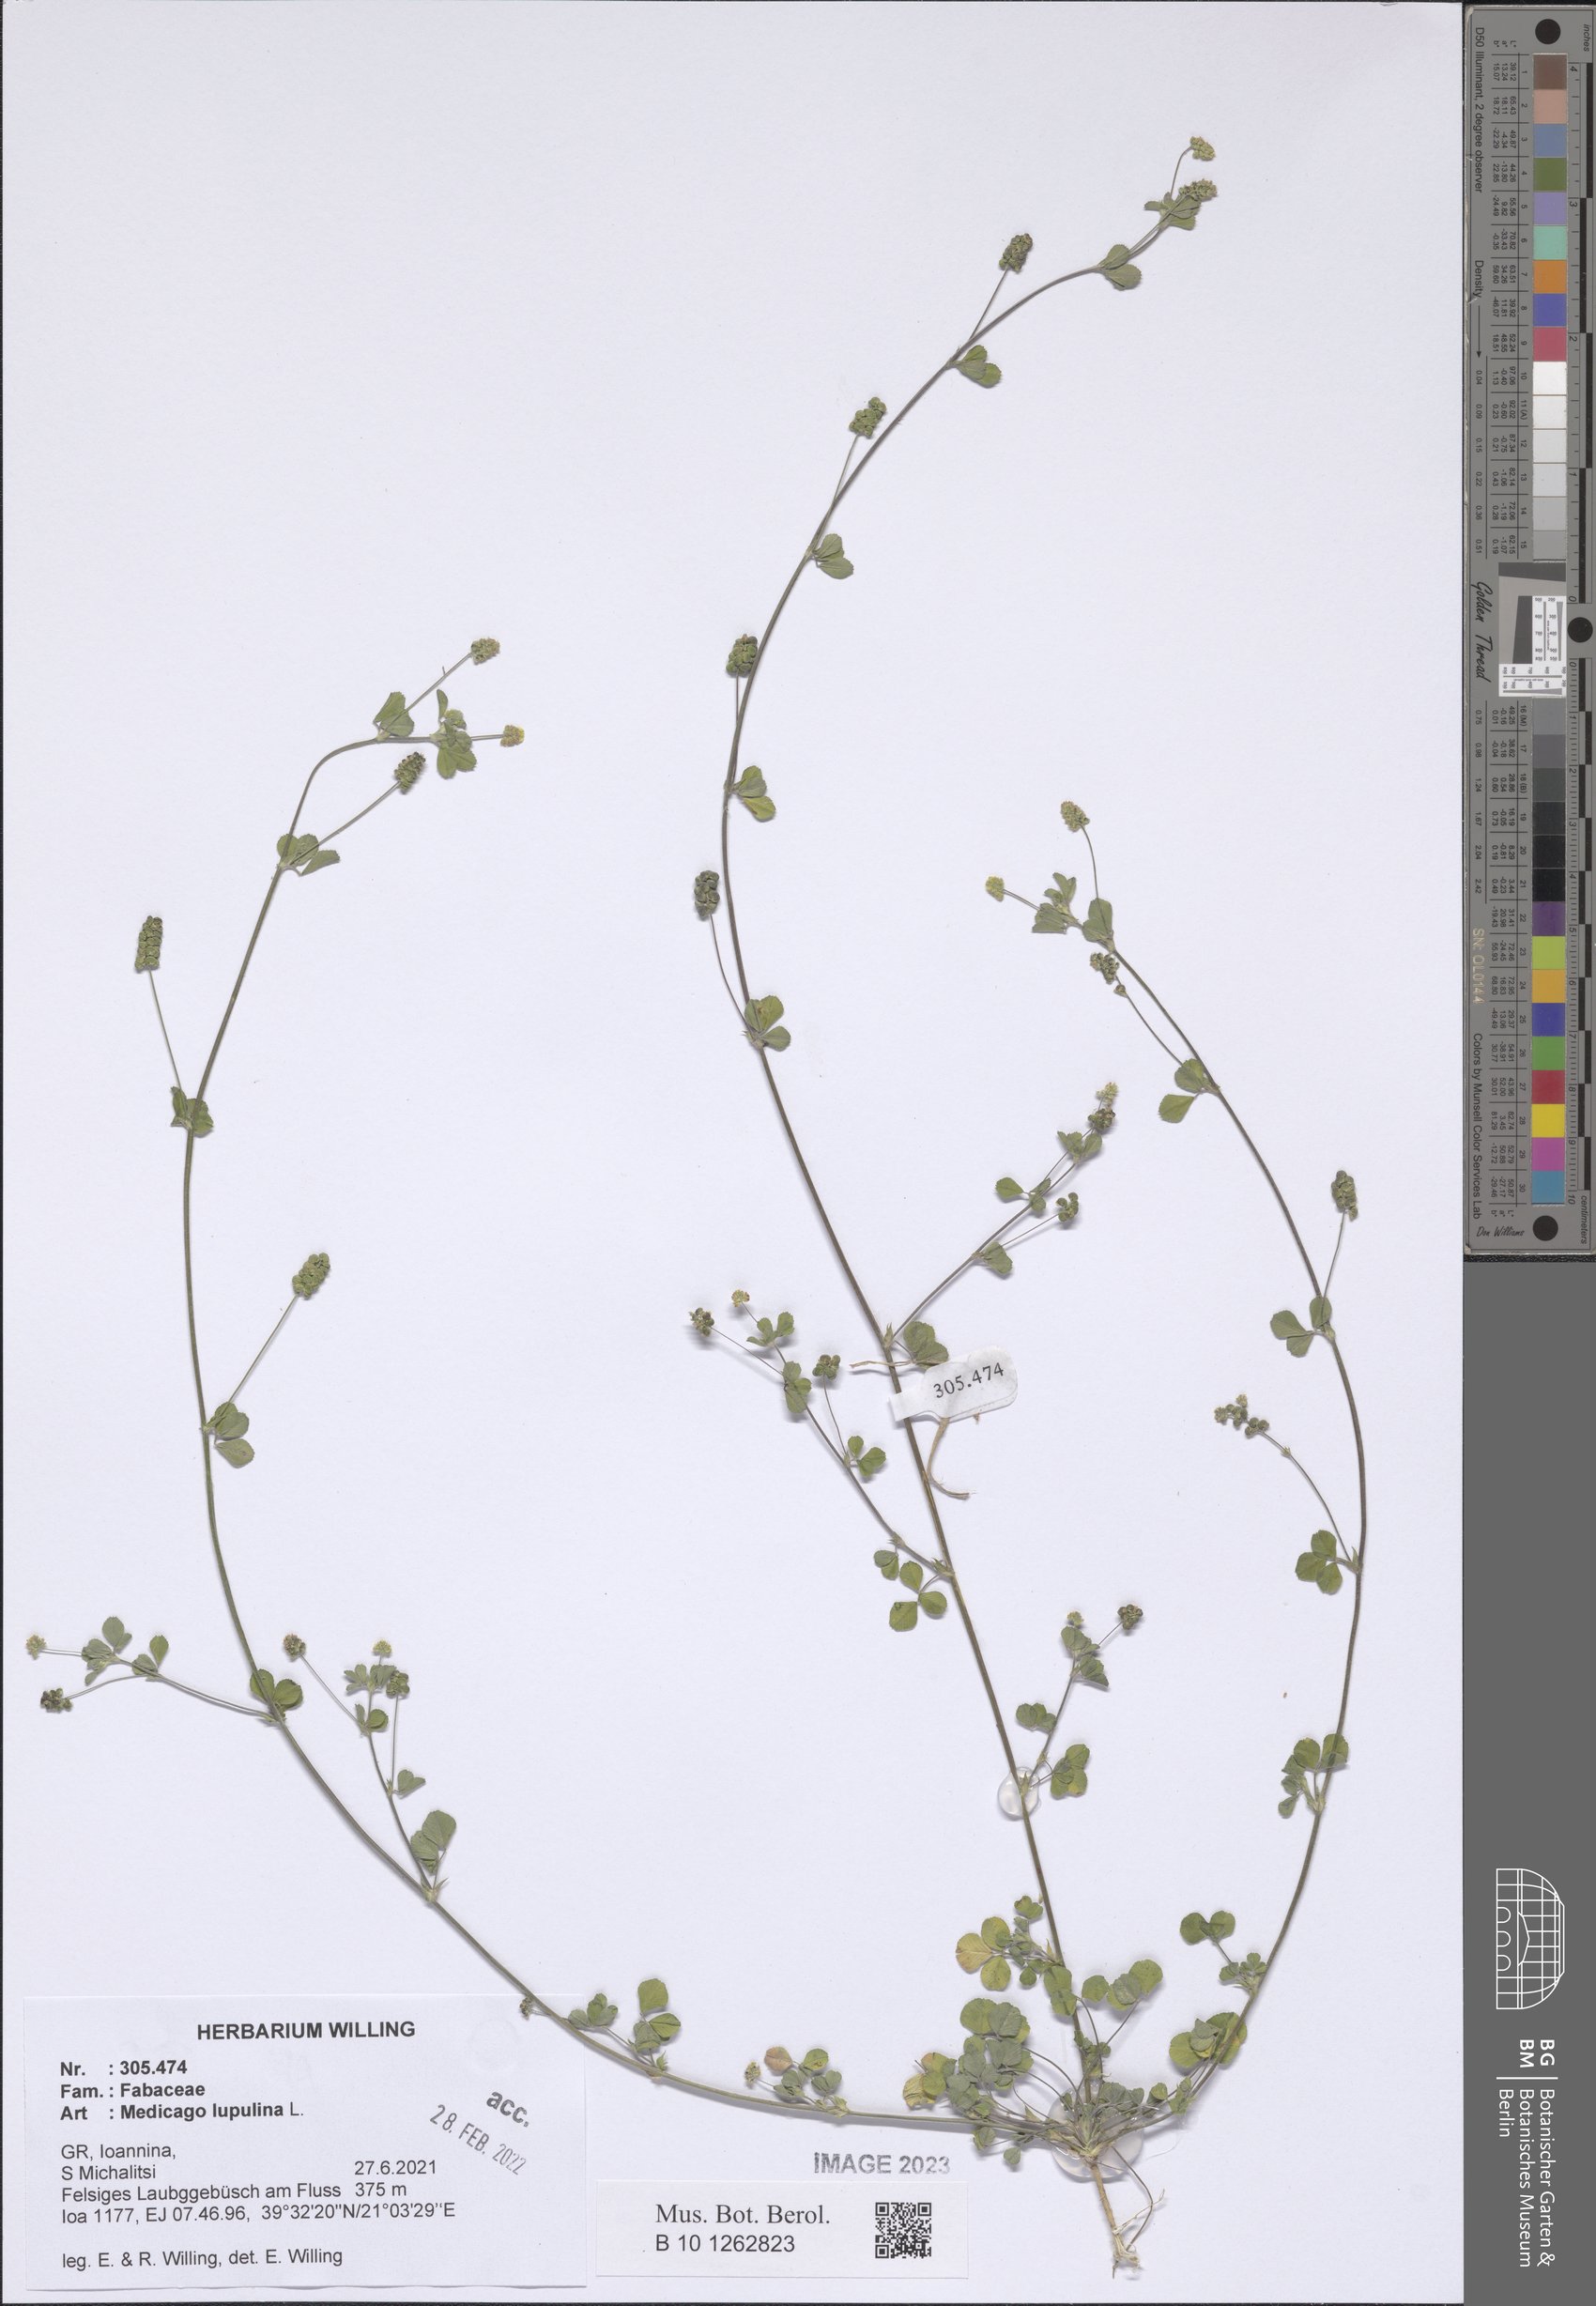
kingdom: Plantae
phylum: Tracheophyta
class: Magnoliopsida
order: Fabales
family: Fabaceae
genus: Medicago
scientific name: Medicago lupulina
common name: Black medick
